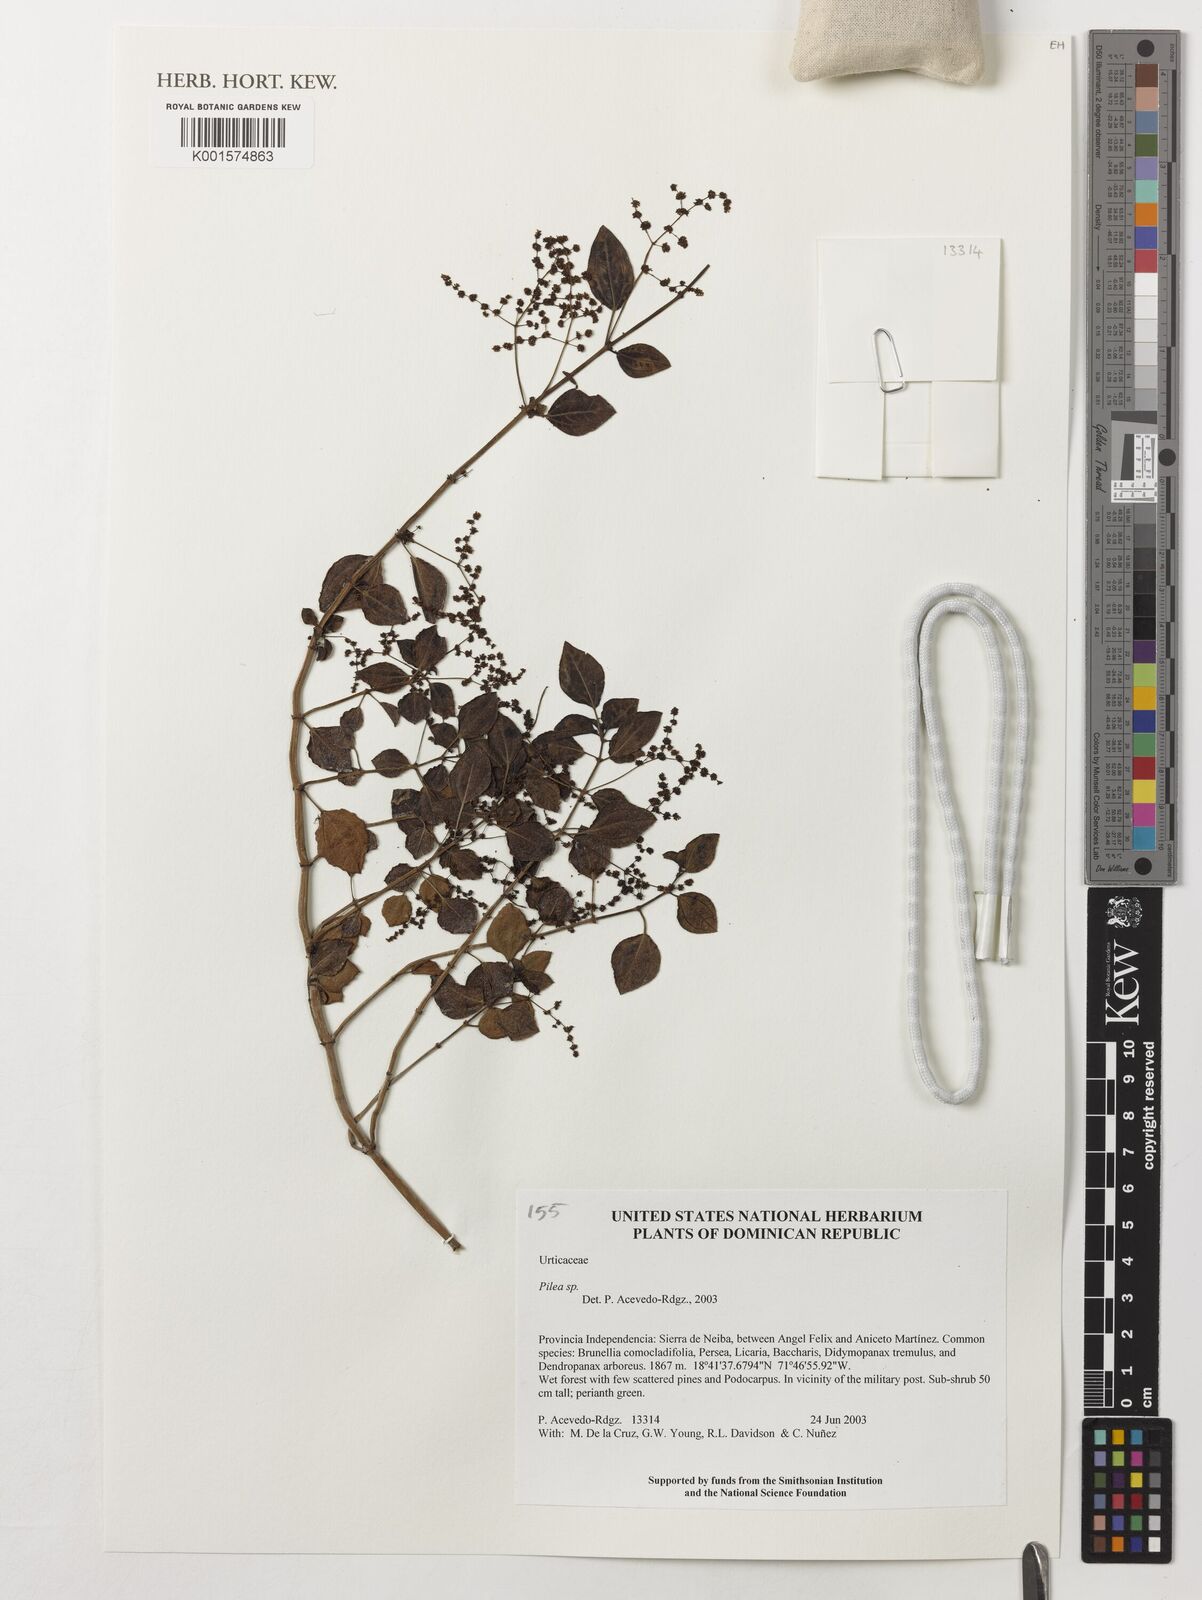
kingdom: Plantae
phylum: Tracheophyta
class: Magnoliopsida
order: Rosales
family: Urticaceae
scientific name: Urticaceae
